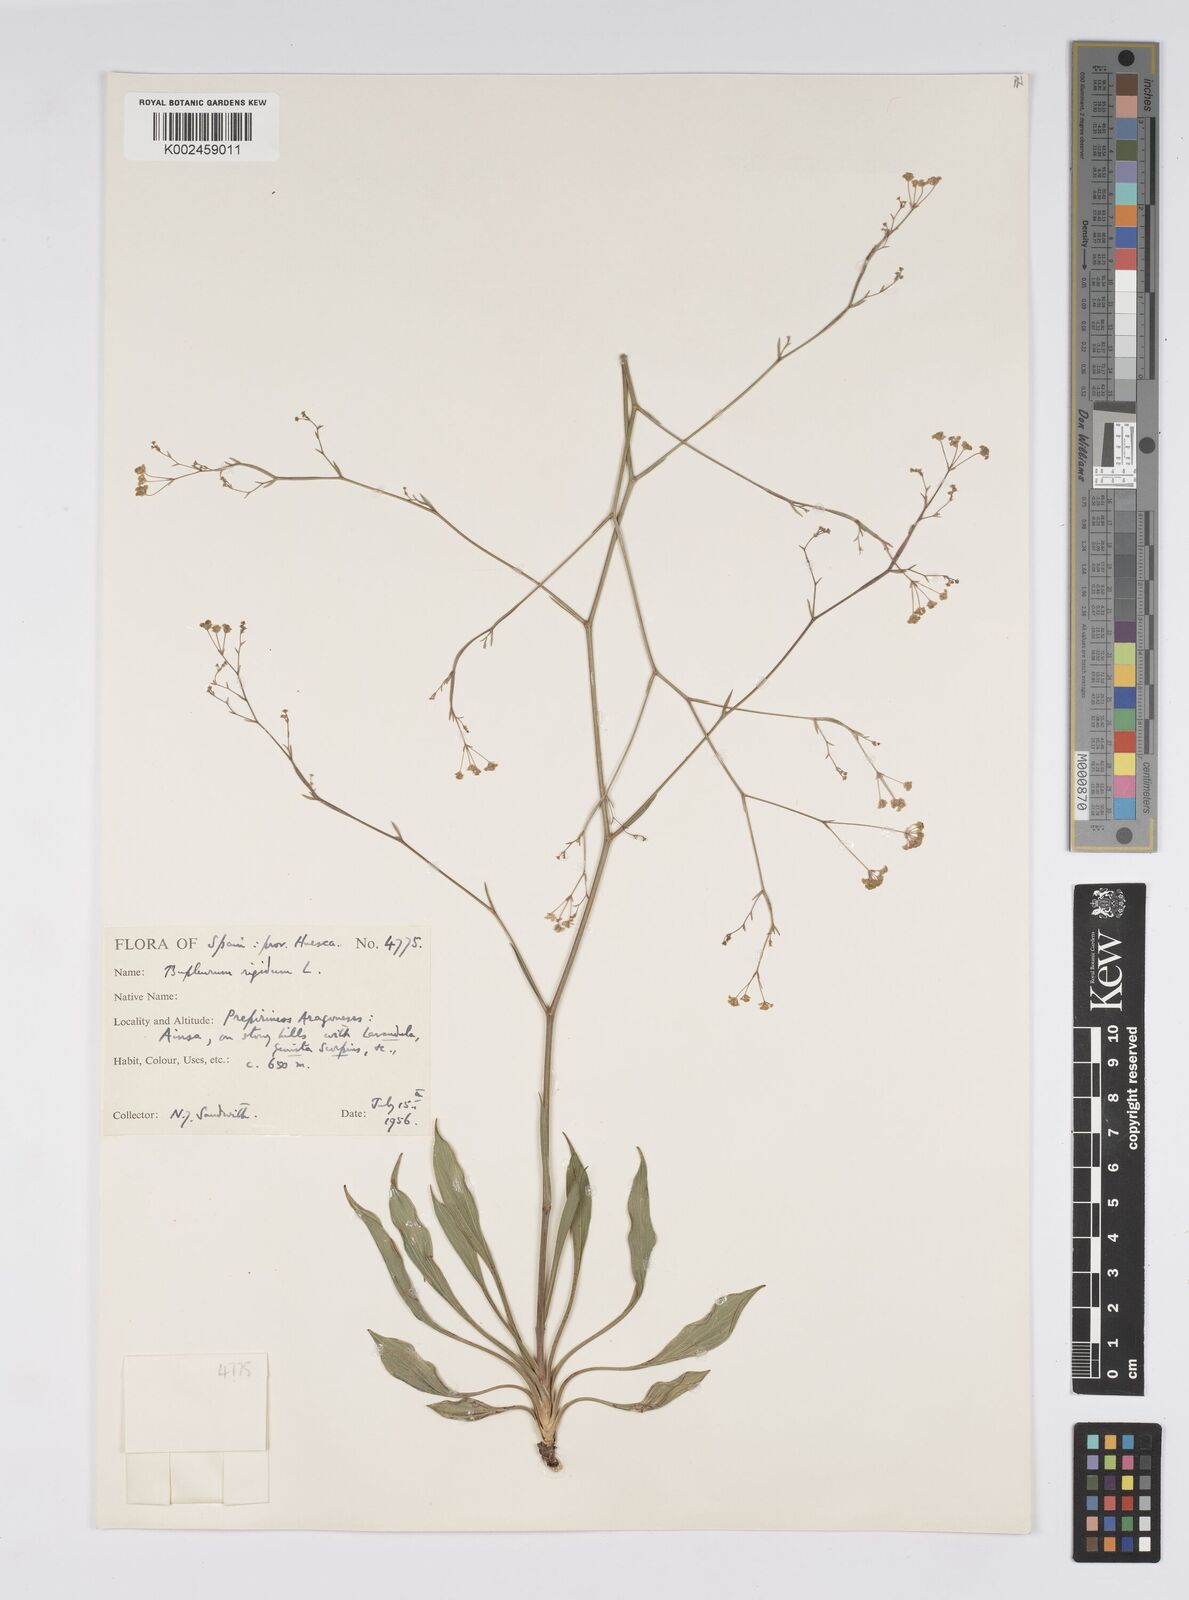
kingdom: Plantae
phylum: Tracheophyta
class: Magnoliopsida
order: Apiales
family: Apiaceae
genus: Bupleurum
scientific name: Bupleurum rigidum
